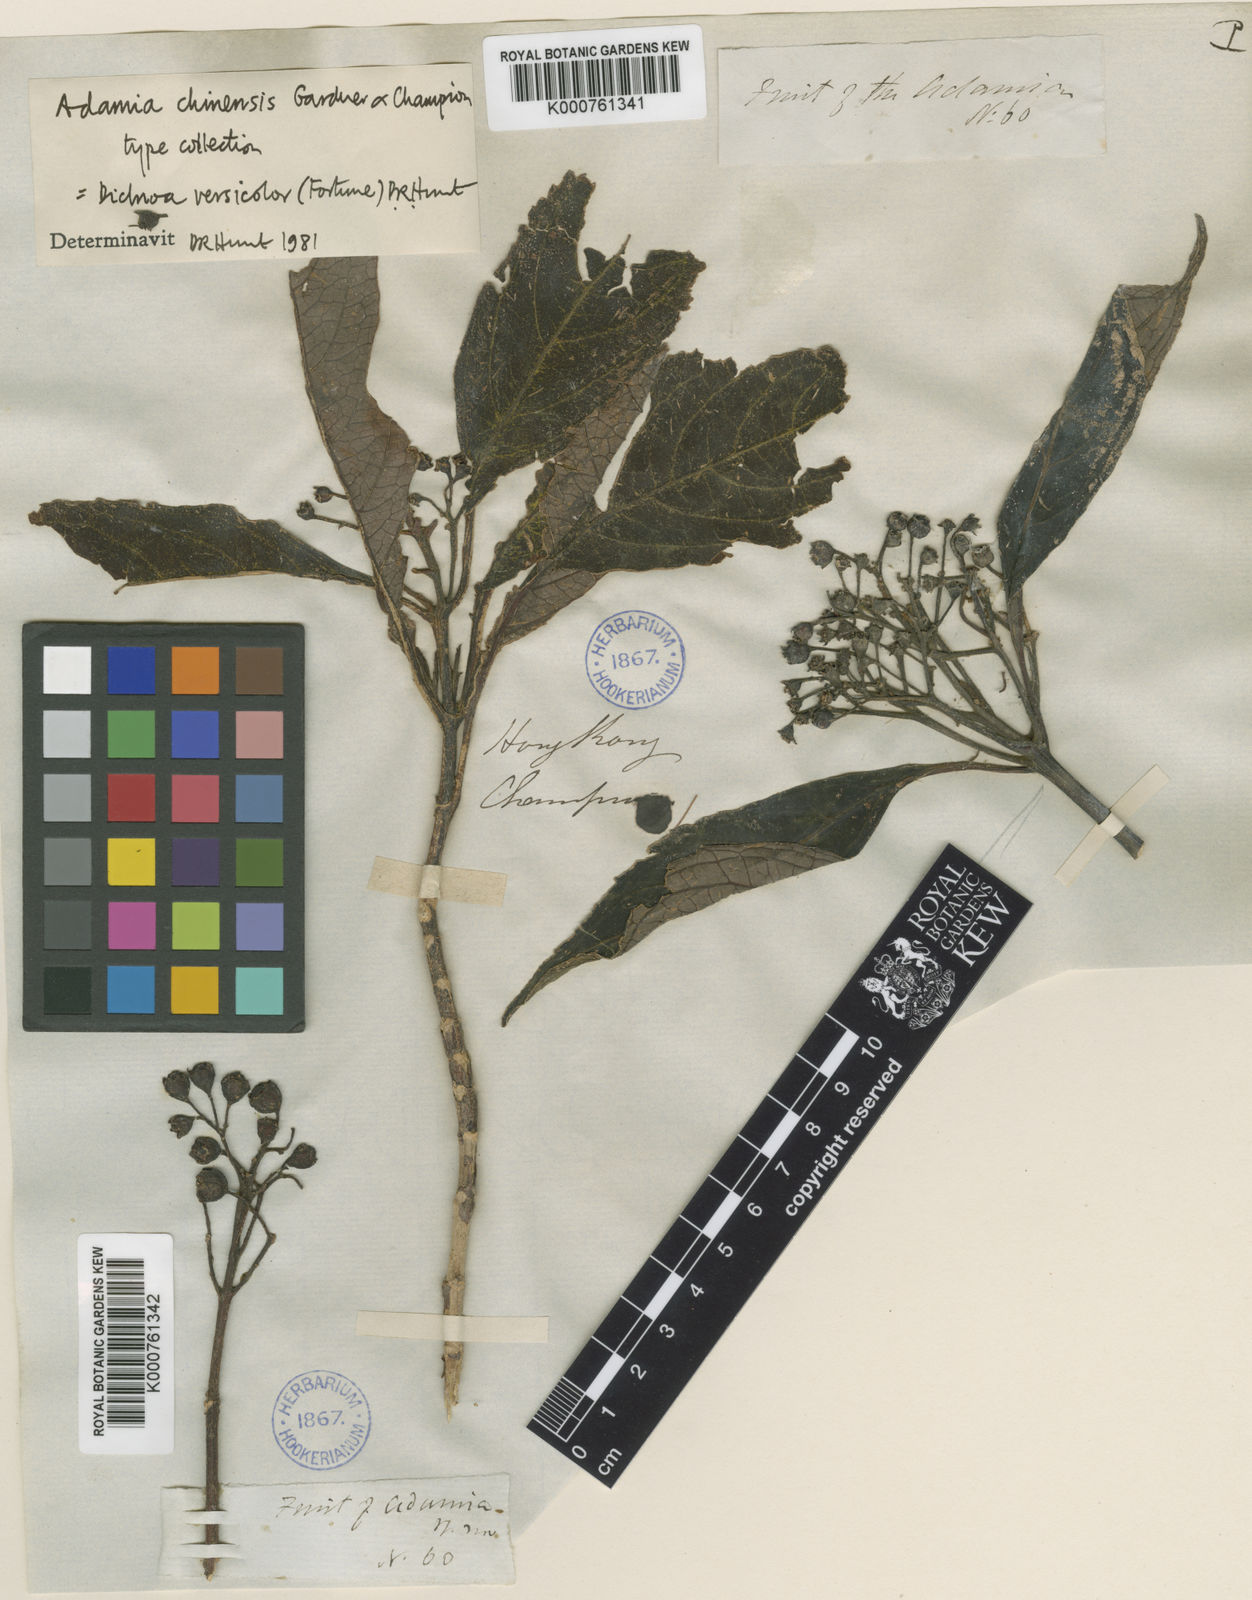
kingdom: Plantae
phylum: Tracheophyta
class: Magnoliopsida
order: Cornales
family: Hydrangeaceae
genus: Hydrangea
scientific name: Hydrangea febrifuga
